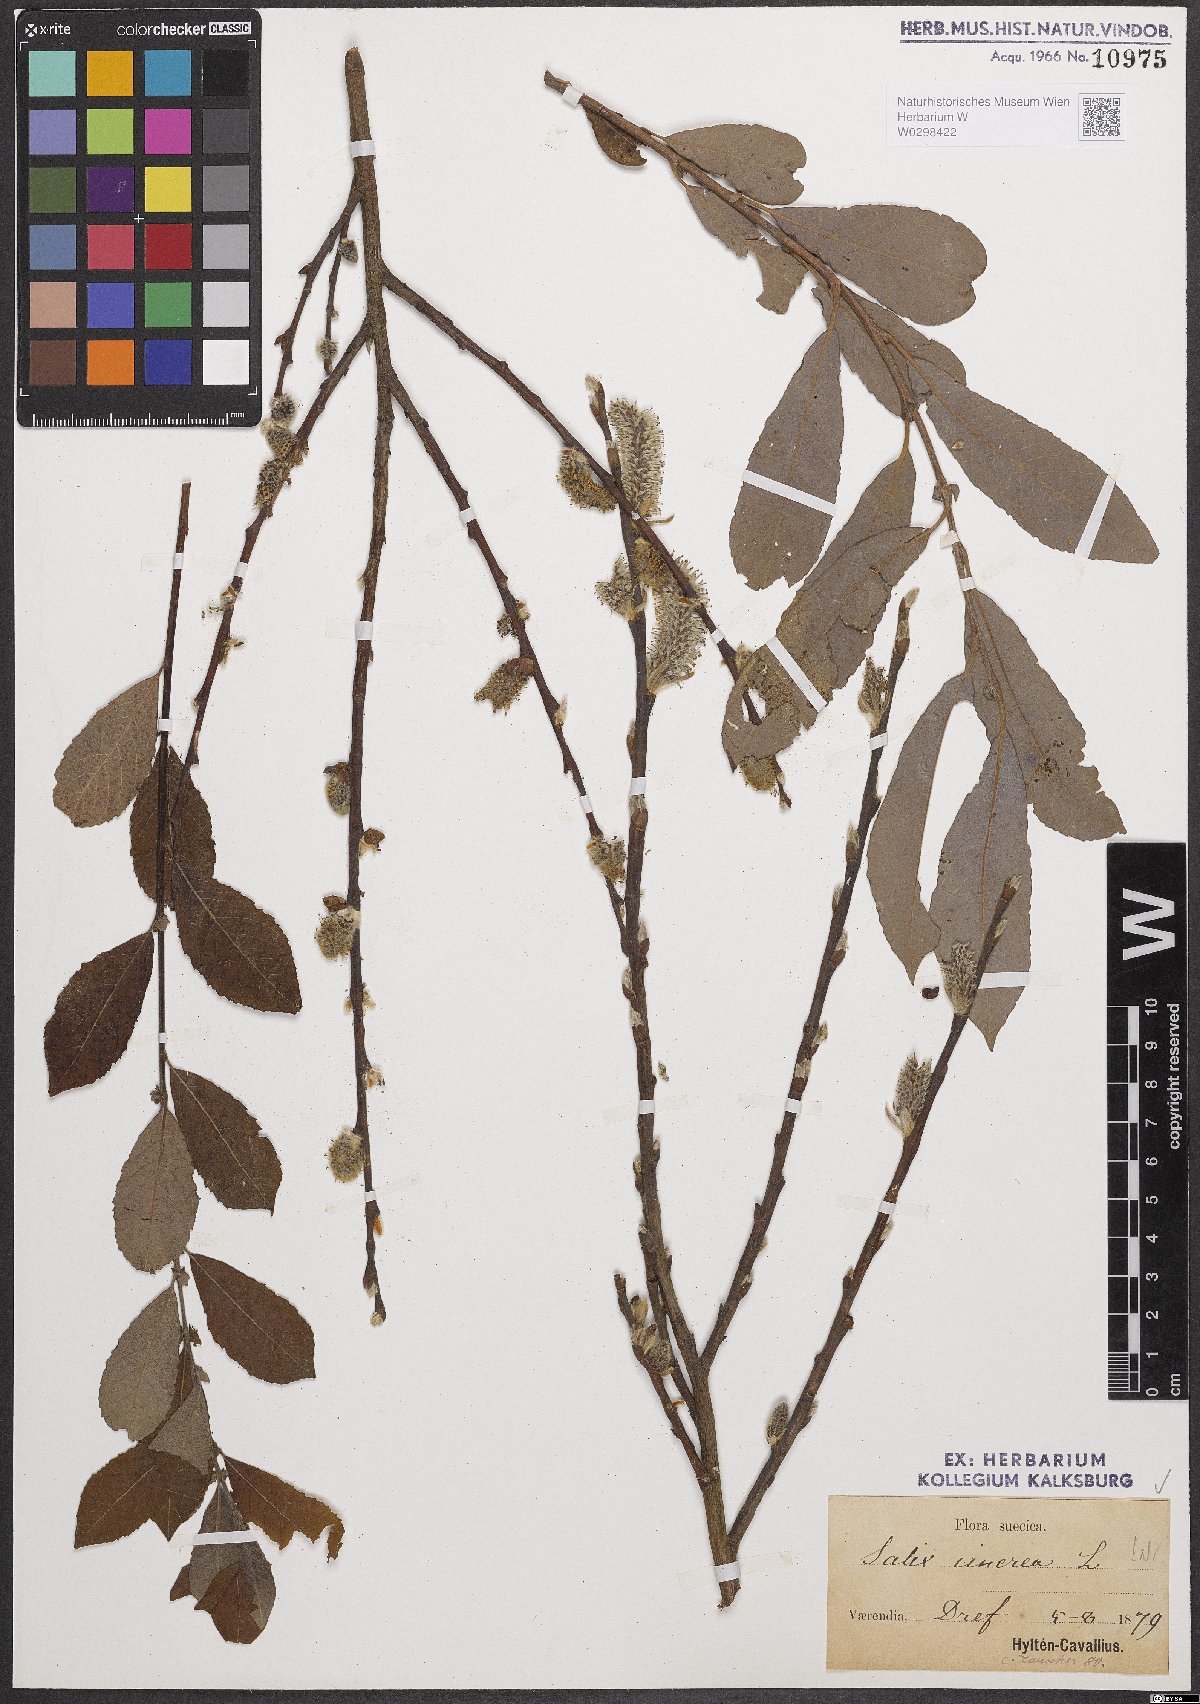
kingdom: Plantae
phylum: Tracheophyta
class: Magnoliopsida
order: Malpighiales
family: Salicaceae
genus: Salix
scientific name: Salix cinerea
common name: Common sallow
